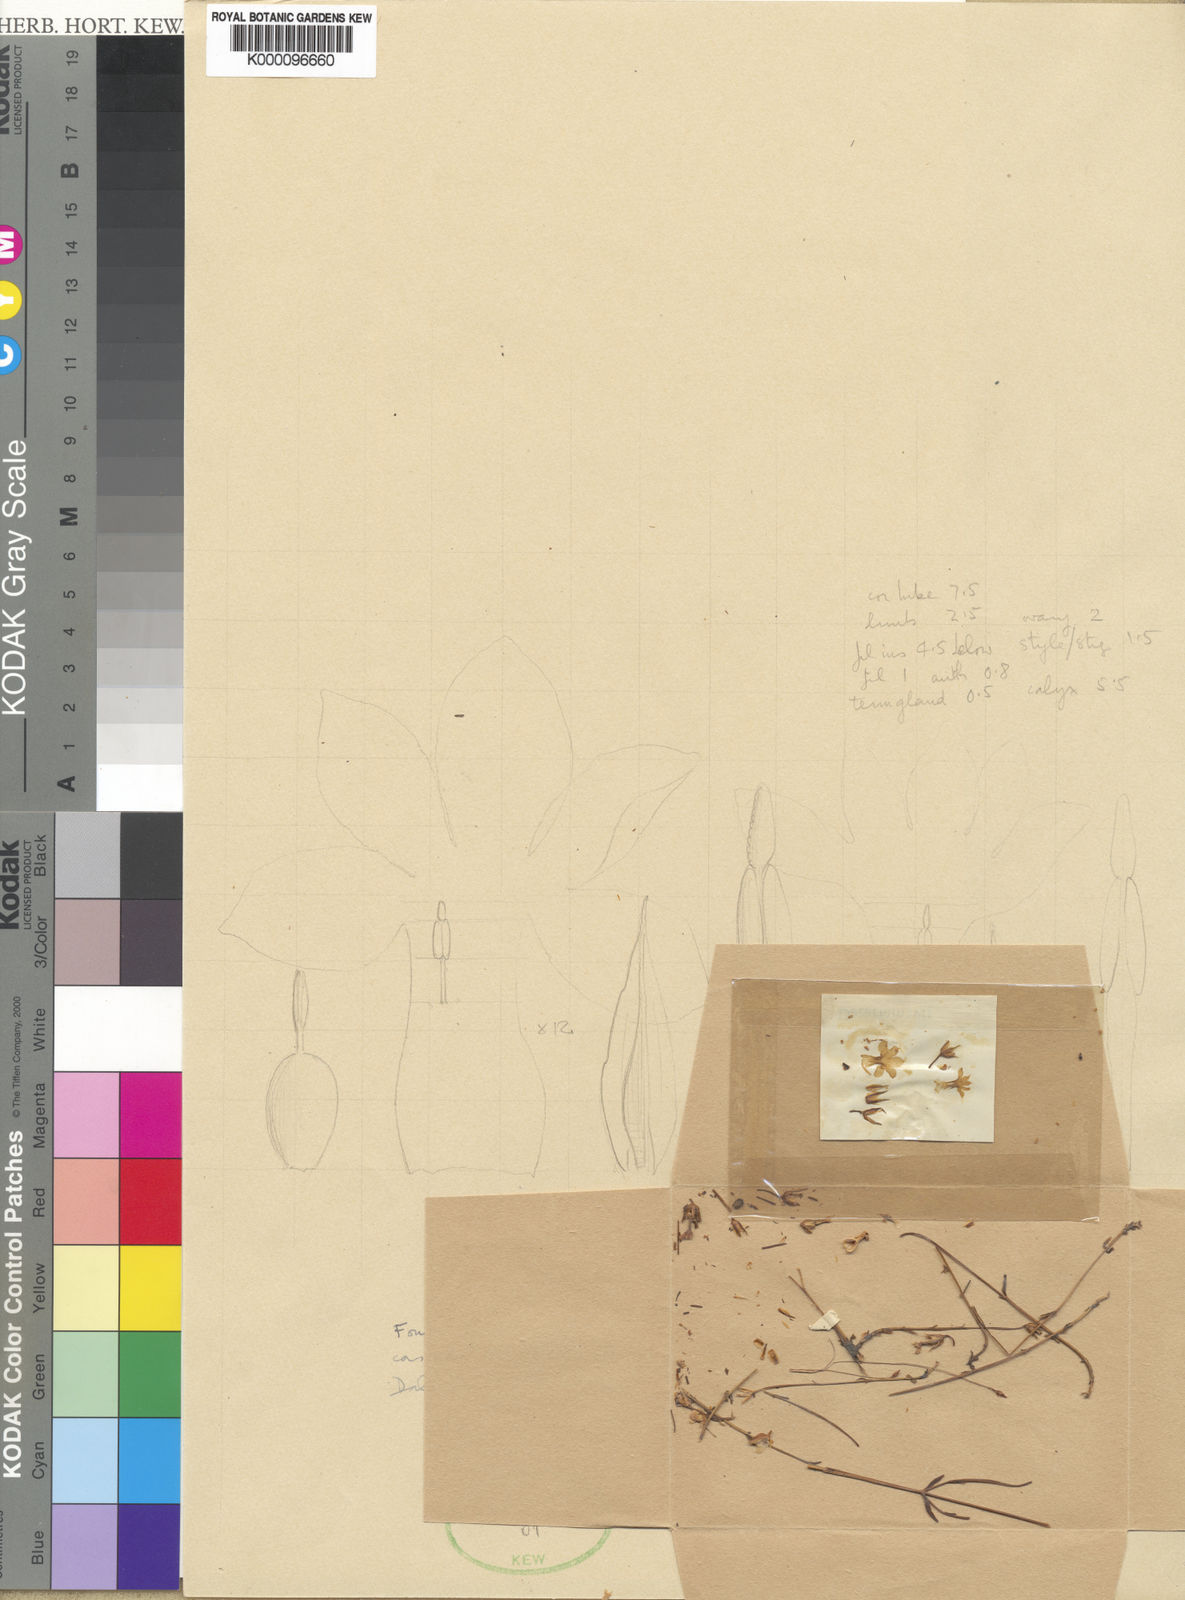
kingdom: Plantae
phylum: Tracheophyta
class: Magnoliopsida
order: Gentianales
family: Gentianaceae
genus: Exochaenium
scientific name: Exochaenium gracile
